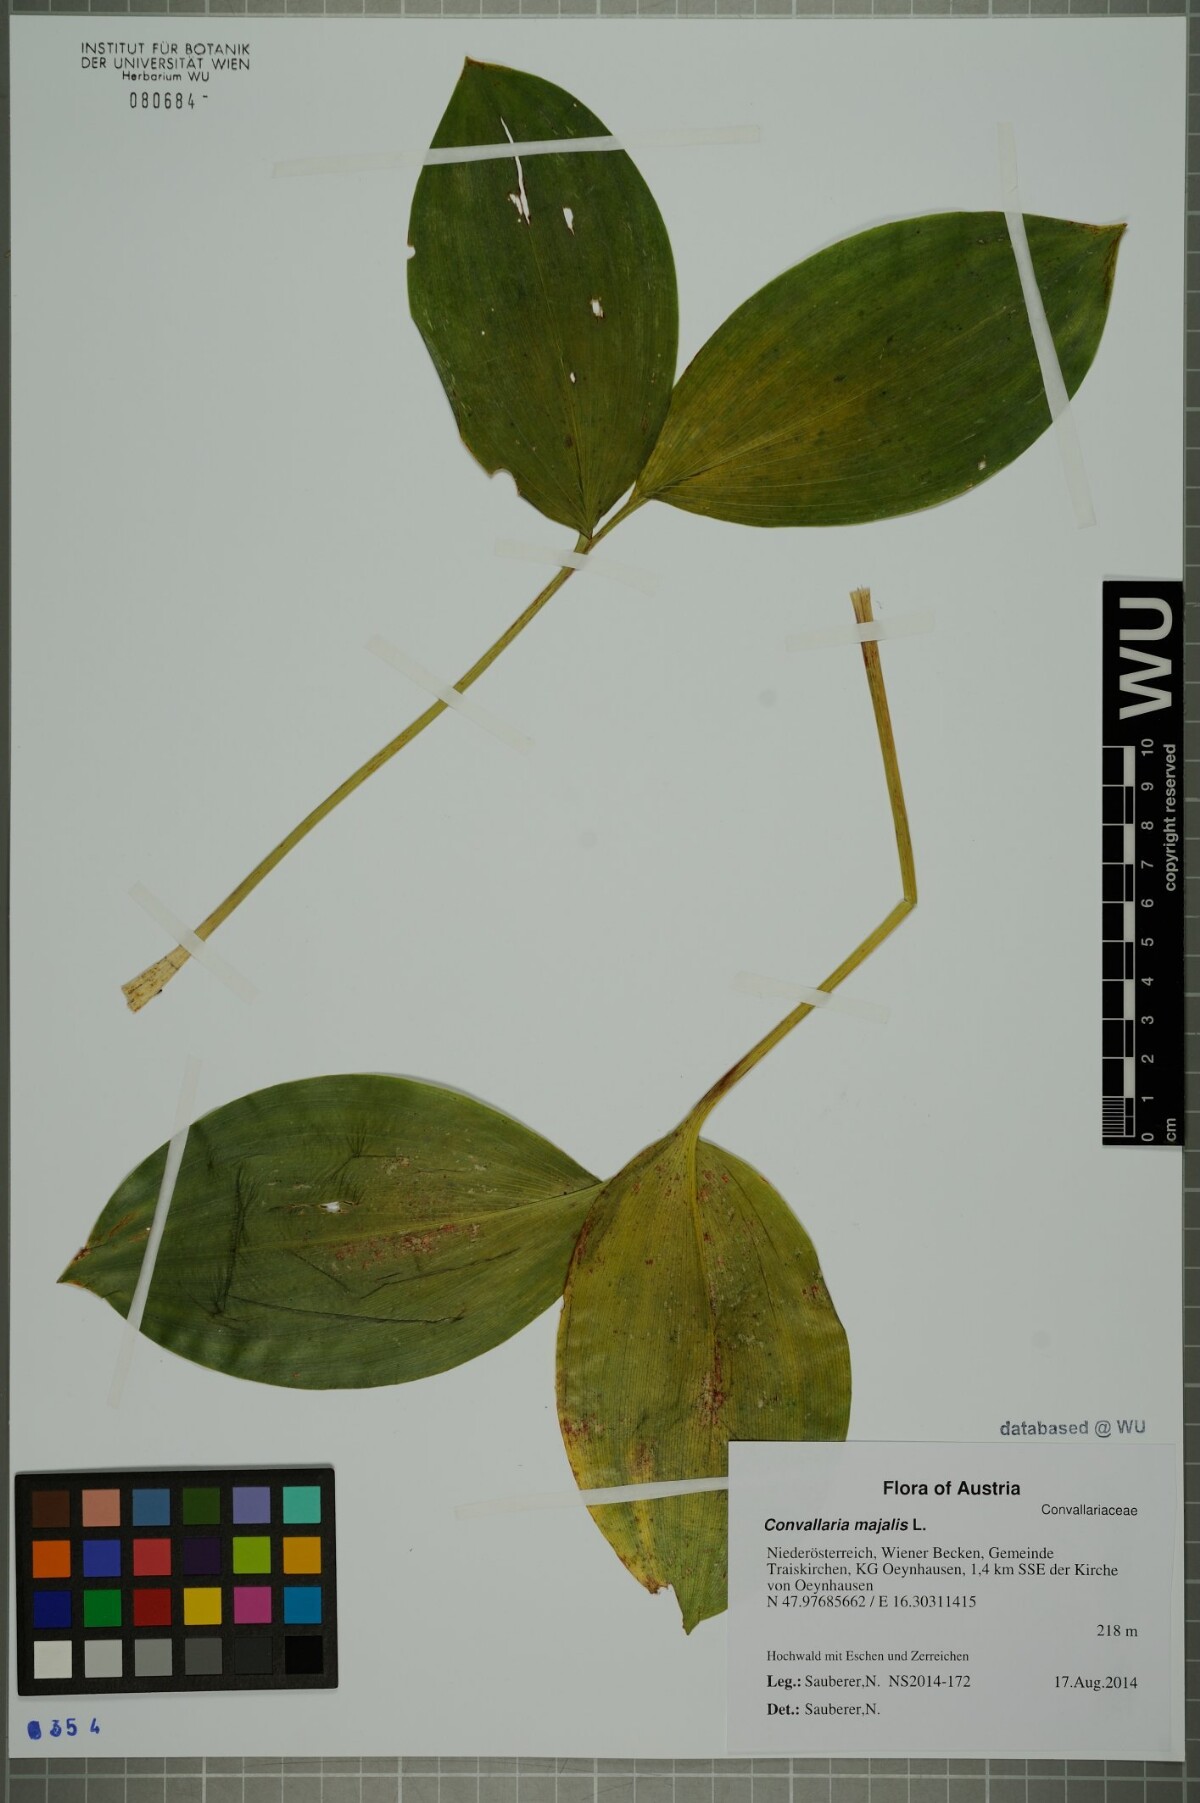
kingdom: Plantae
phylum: Tracheophyta
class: Liliopsida
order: Asparagales
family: Asparagaceae
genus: Convallaria
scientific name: Convallaria majalis
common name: Lily-of-the-valley
